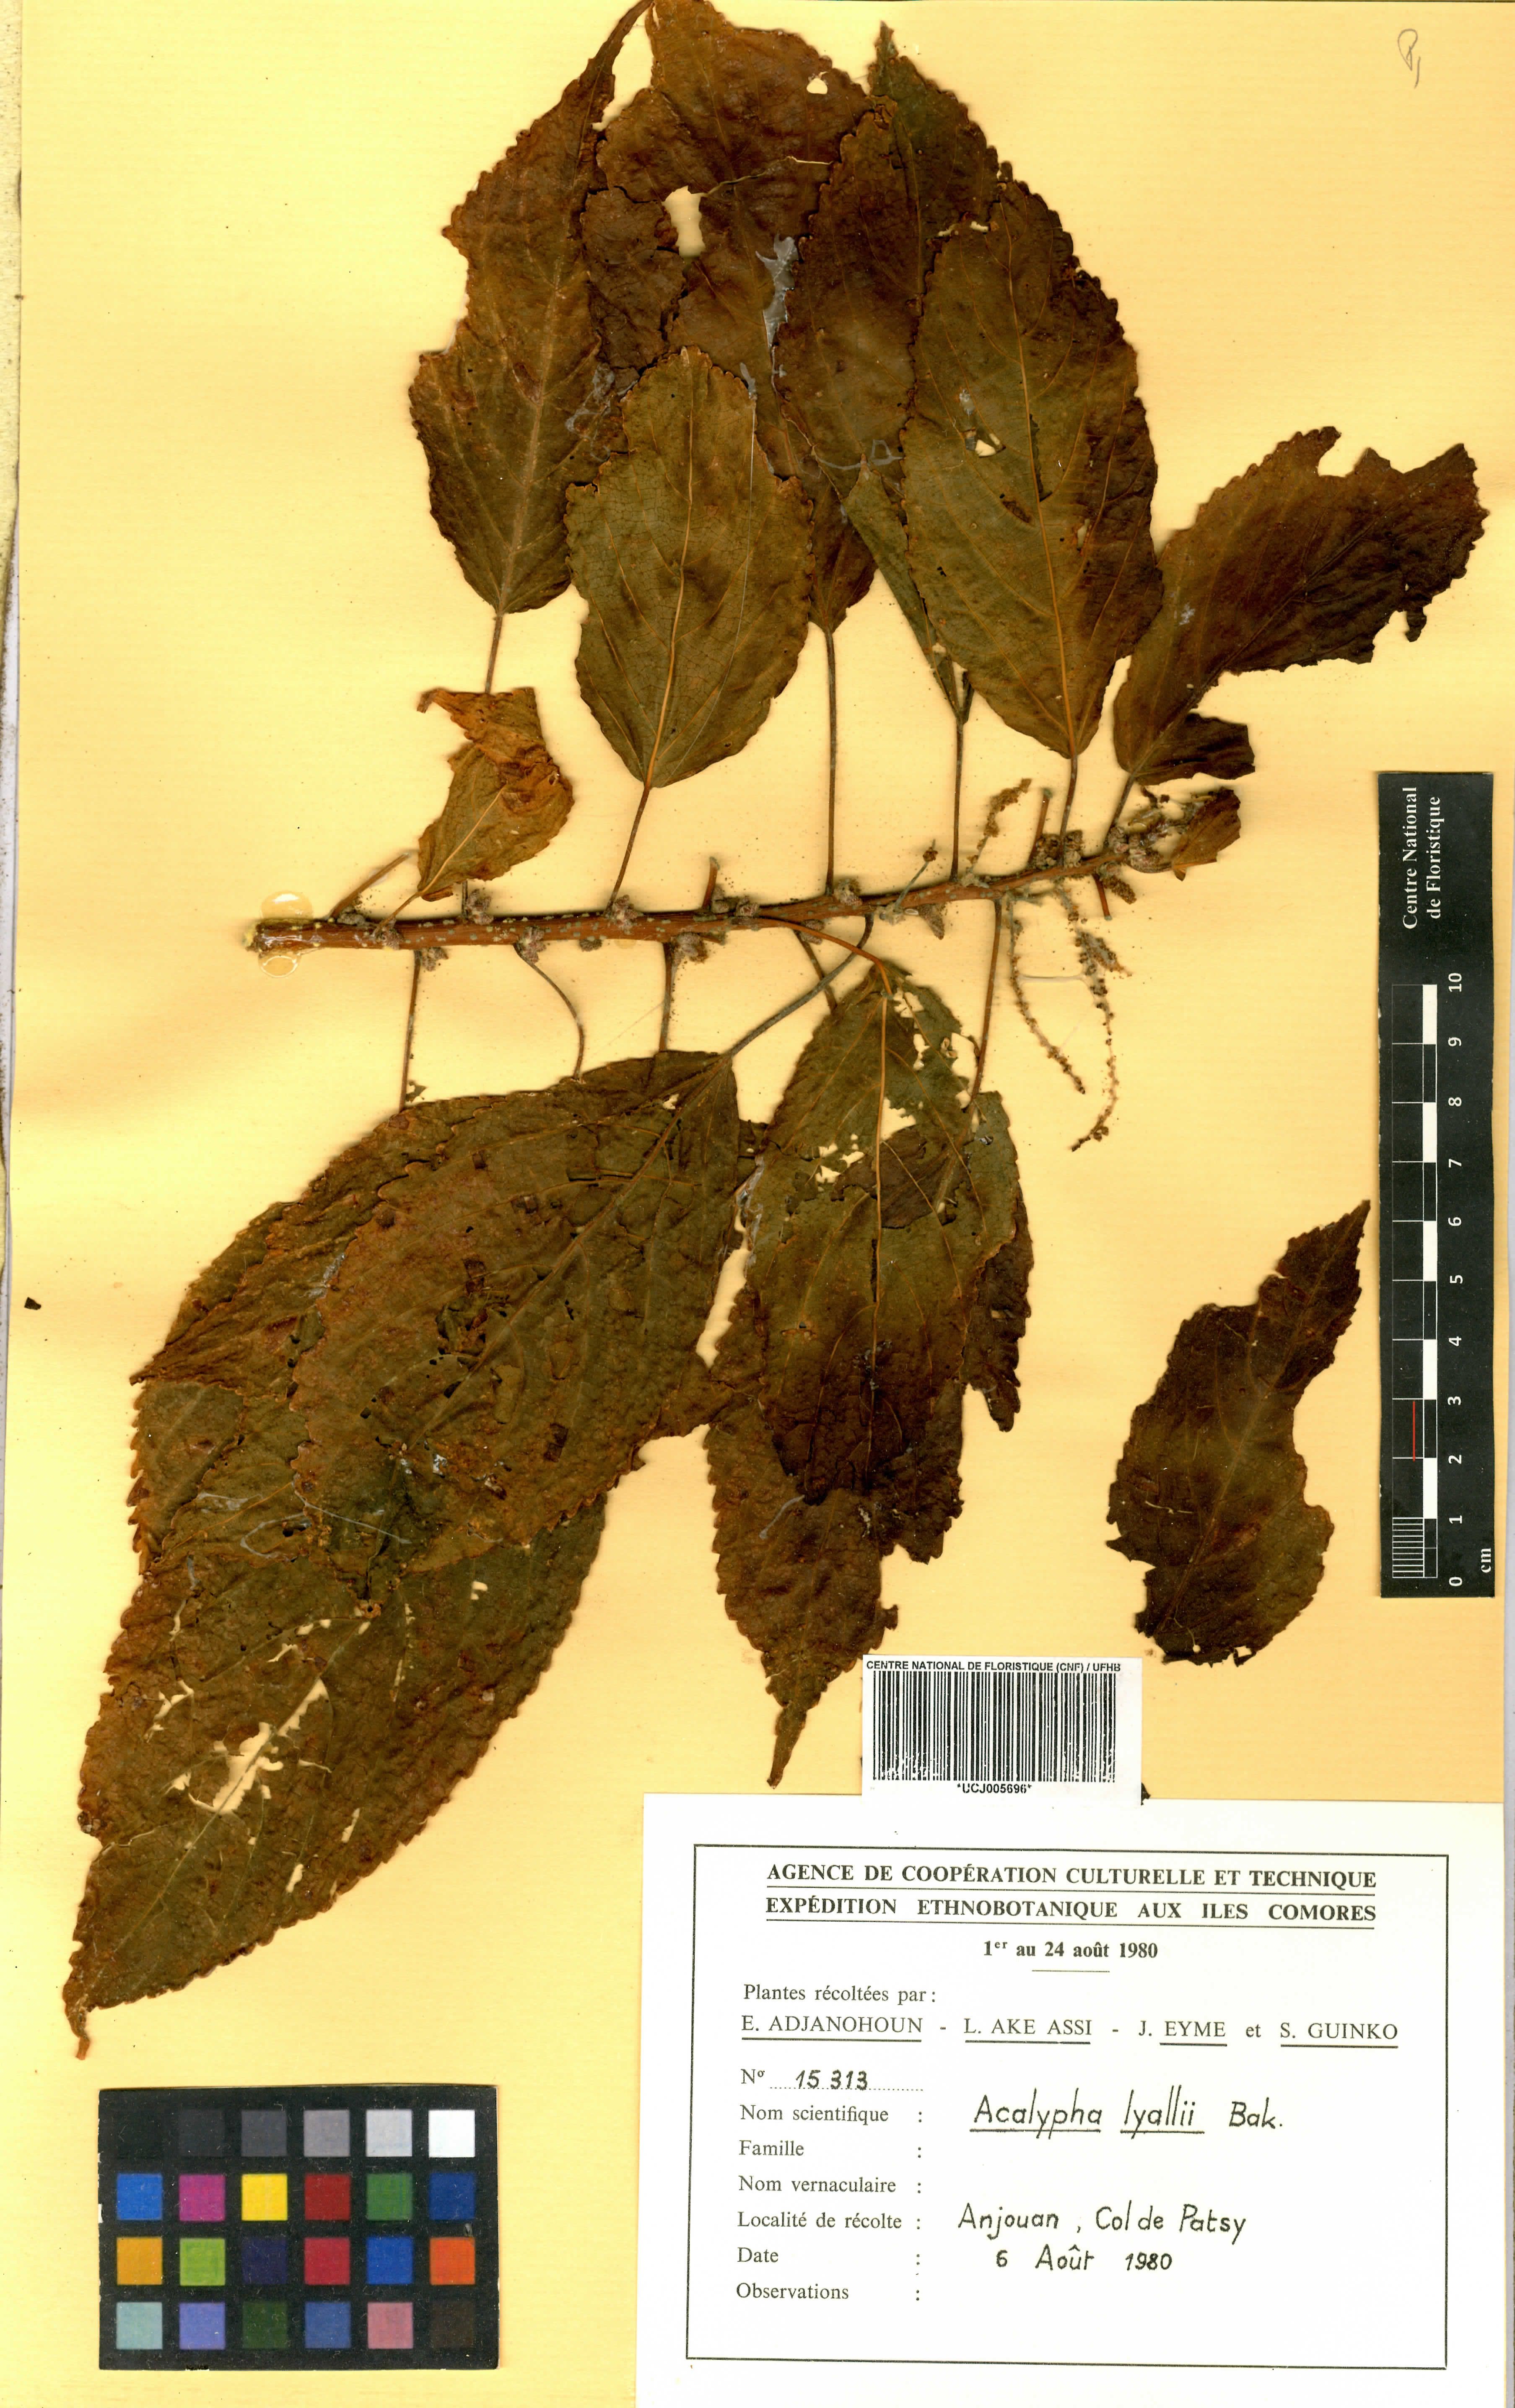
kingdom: Plantae
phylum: Tracheophyta
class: Magnoliopsida
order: Malpighiales
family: Euphorbiaceae
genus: Acalypha
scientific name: Acalypha fasciculata
